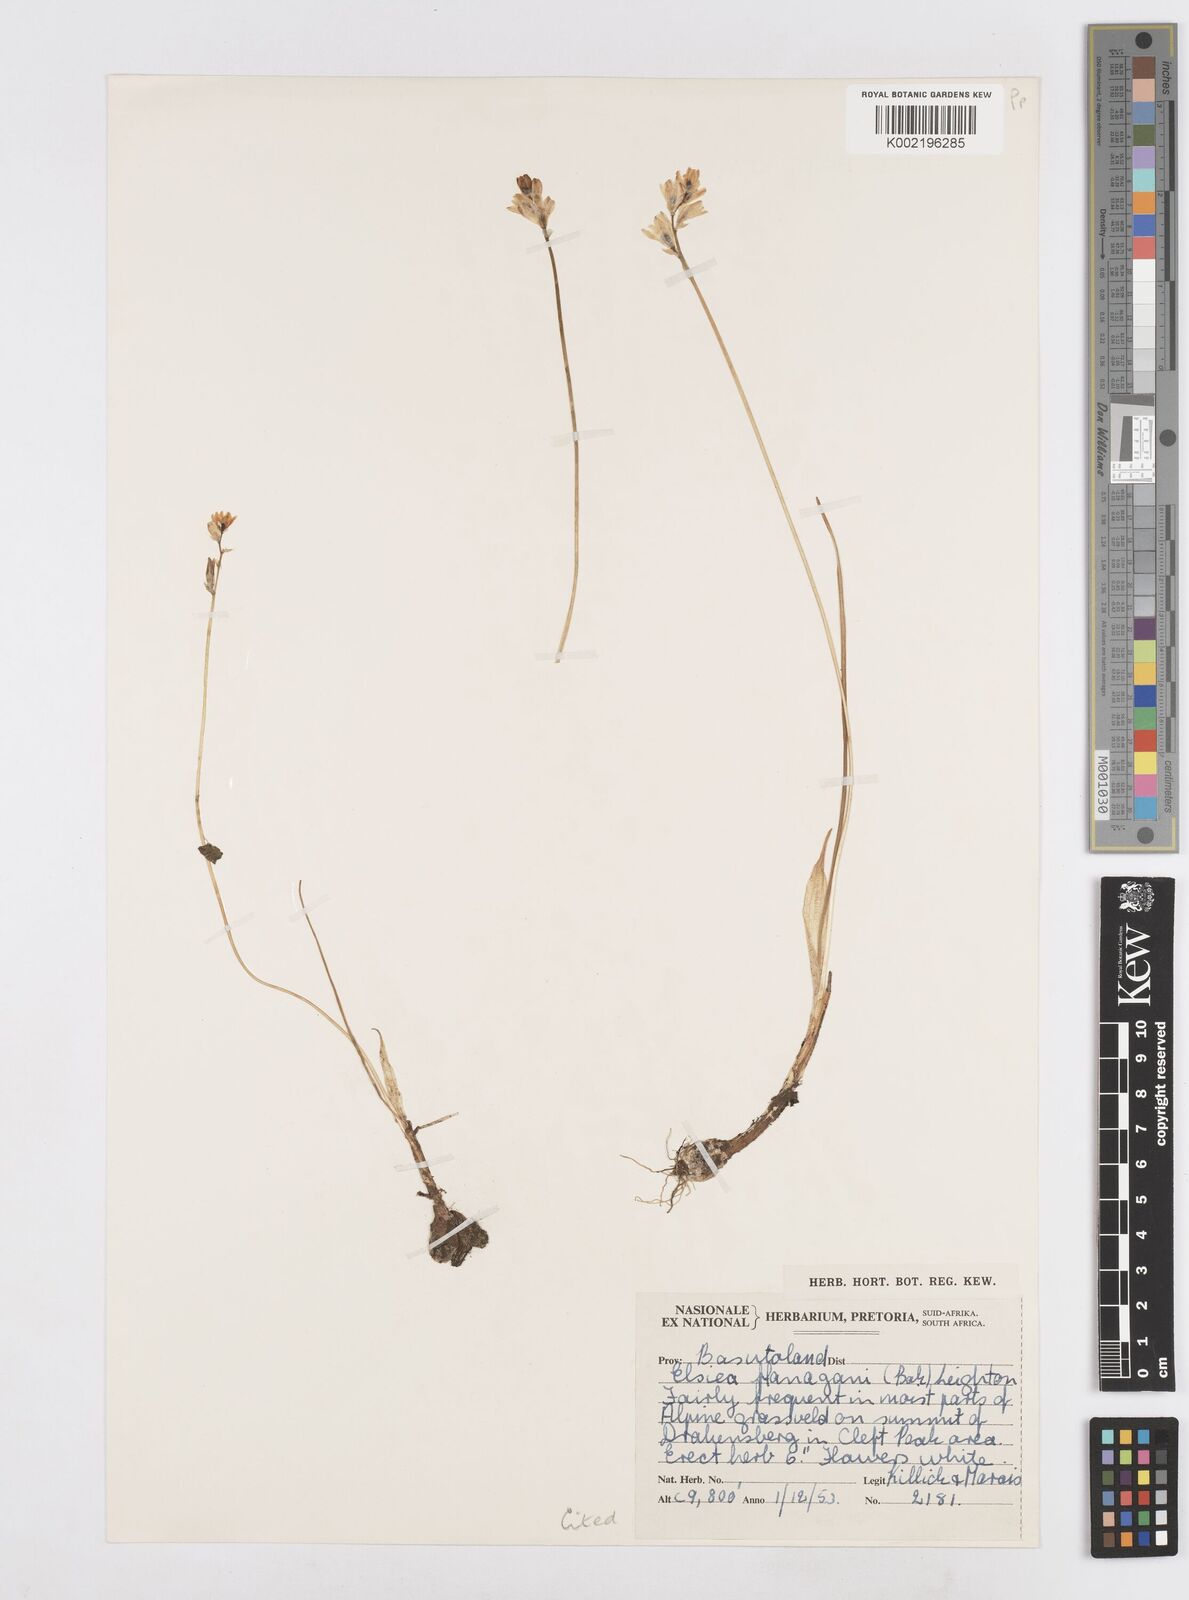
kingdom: Plantae
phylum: Tracheophyta
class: Liliopsida
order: Asparagales
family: Asparagaceae
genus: Ornithogalum
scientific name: Ornithogalum paludosum
